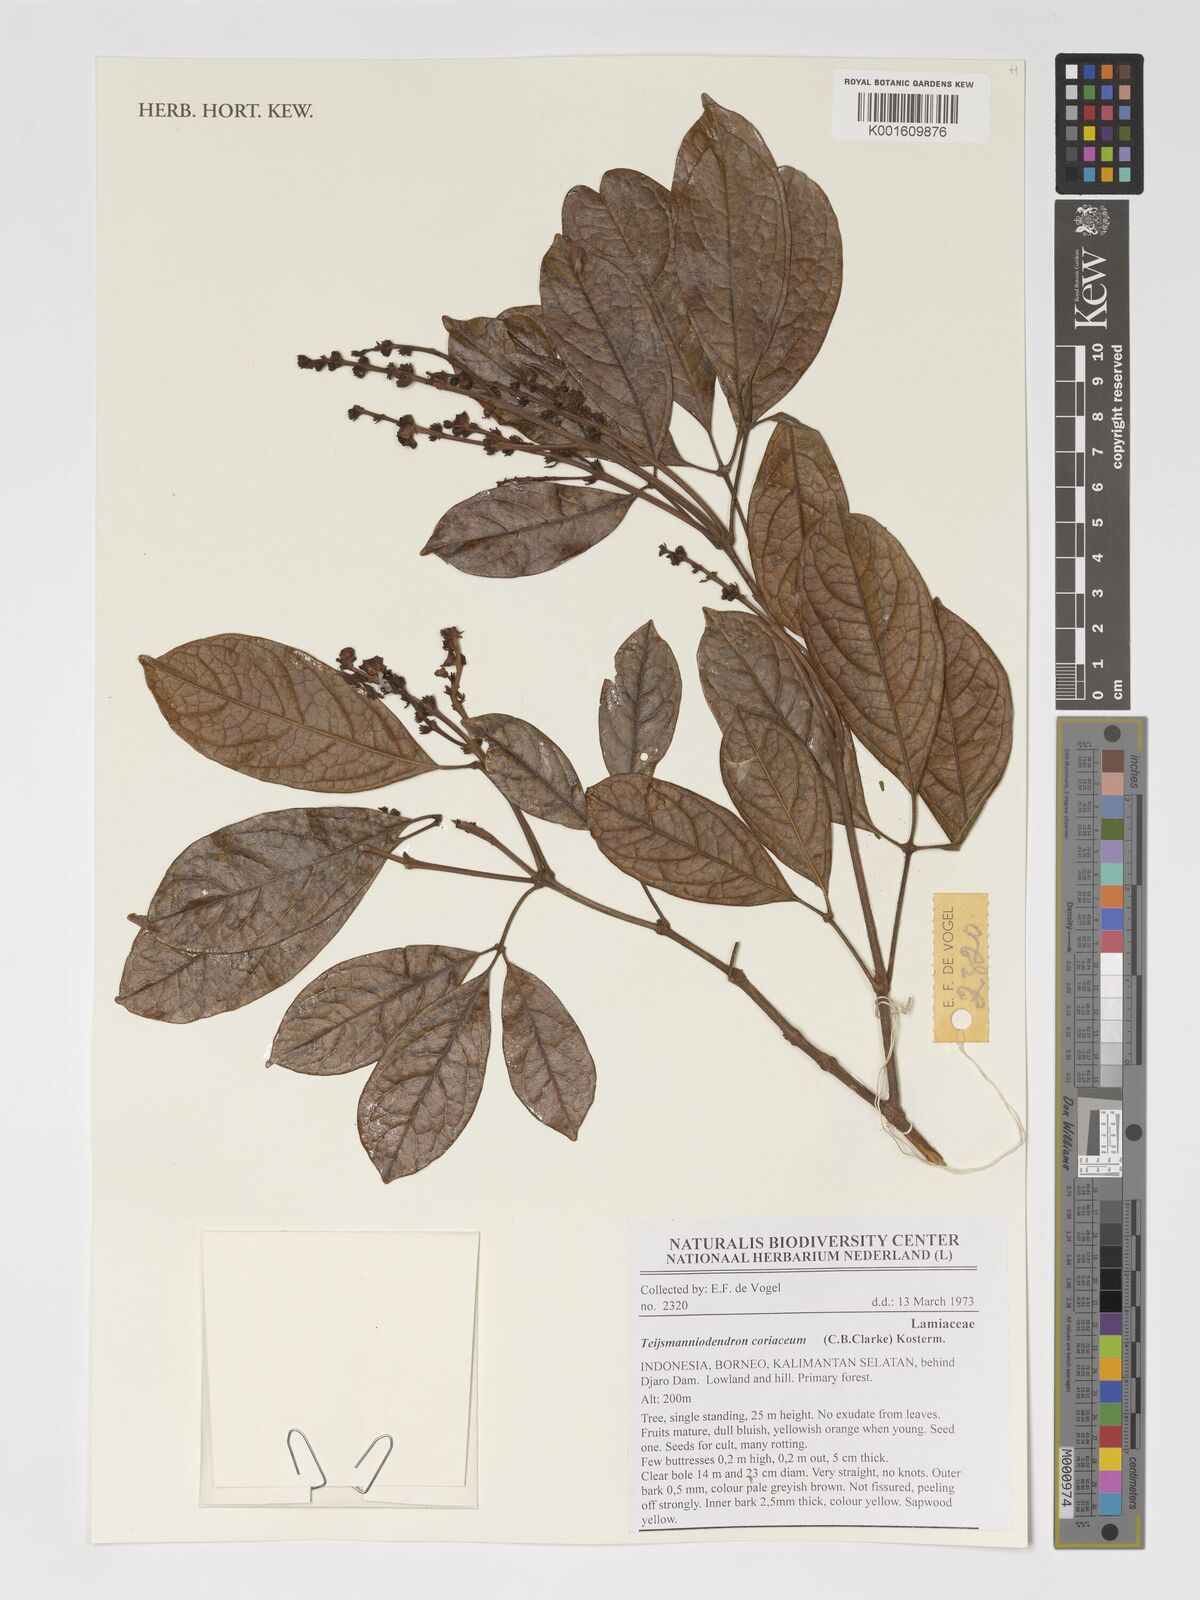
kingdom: Plantae
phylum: Tracheophyta
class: Magnoliopsida
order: Lamiales
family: Lamiaceae
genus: Teijsmanniodendron
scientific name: Teijsmanniodendron coriaceum
